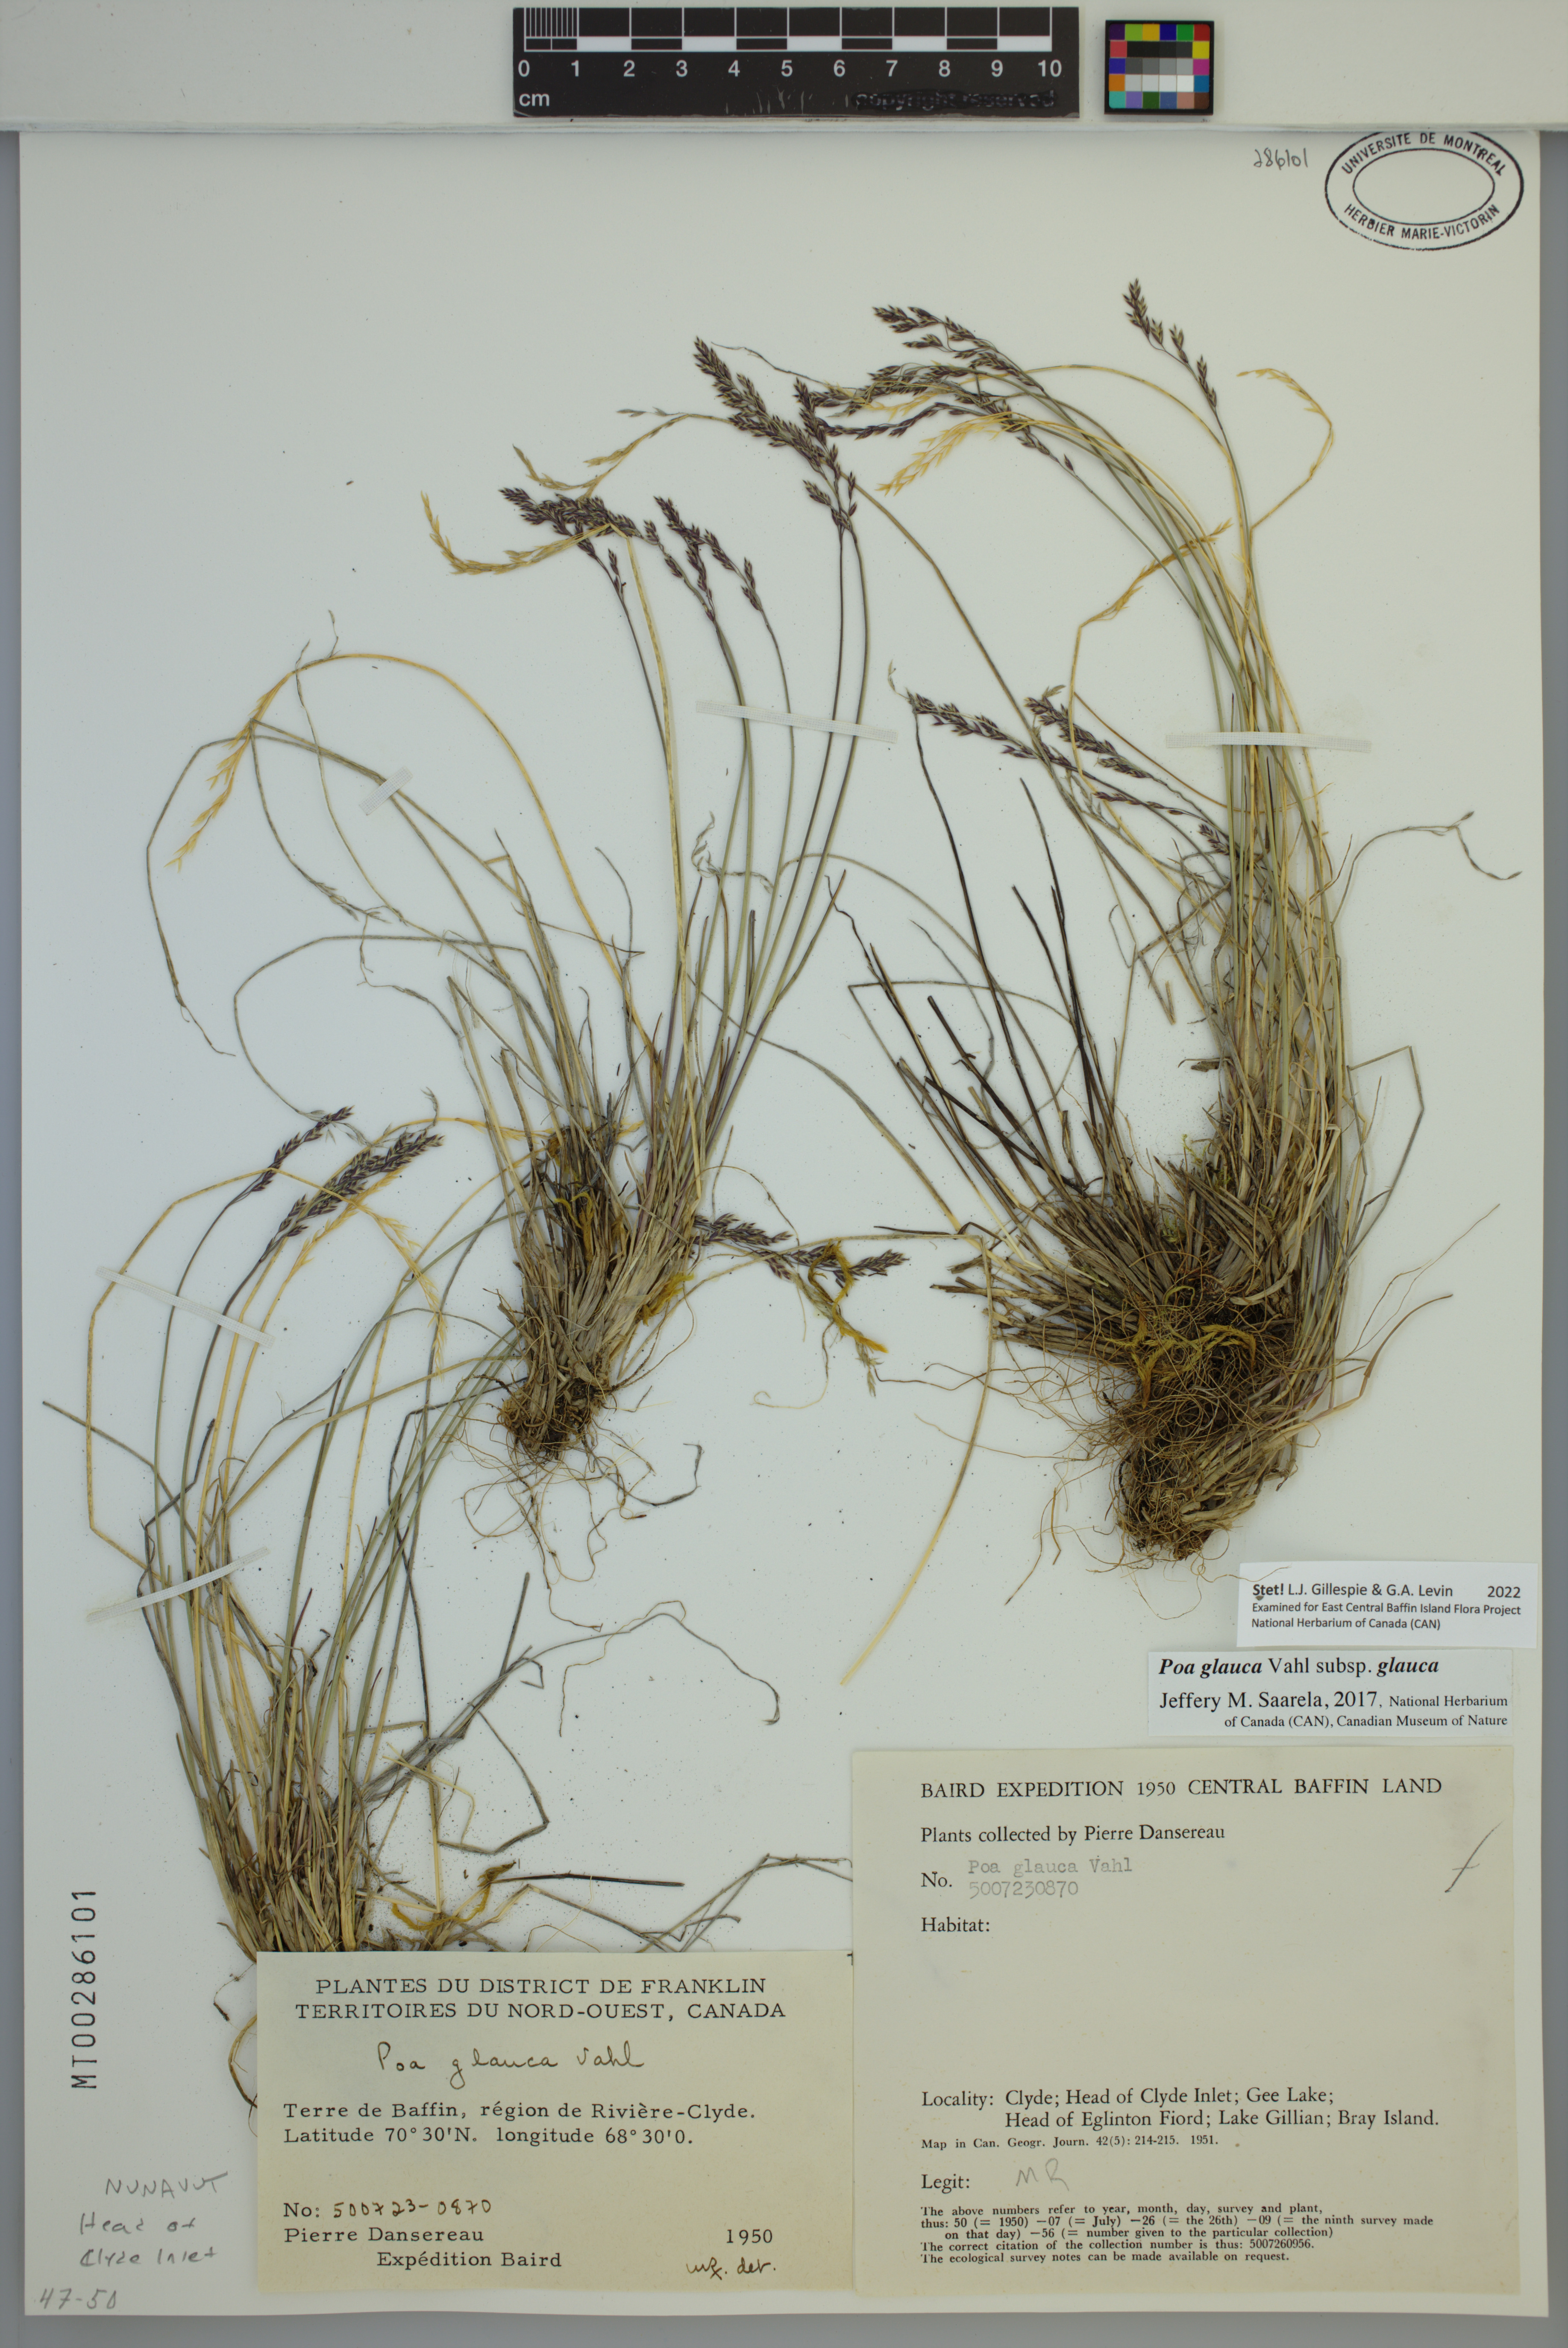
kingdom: Plantae
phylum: Tracheophyta
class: Liliopsida
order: Poales
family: Poaceae
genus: Poa
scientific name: Poa glauca
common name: Glaucous bluegrass
